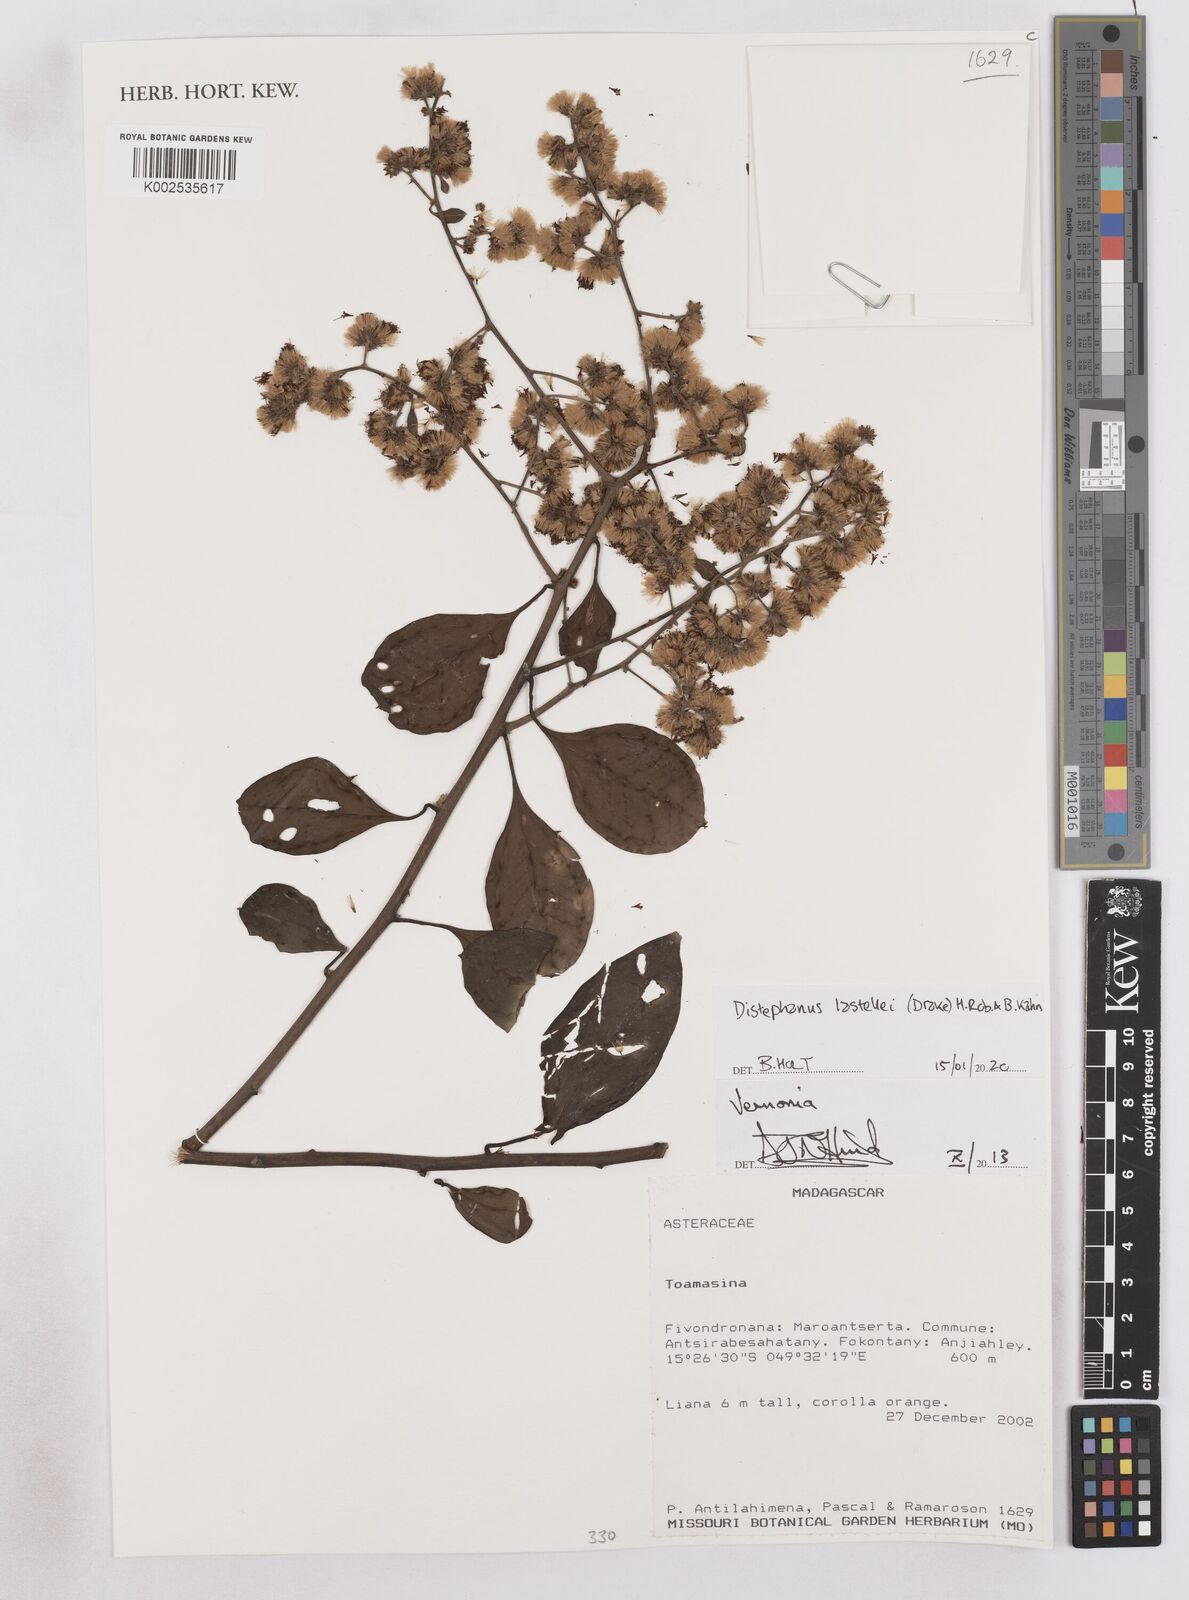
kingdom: Plantae
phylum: Tracheophyta
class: Magnoliopsida
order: Asterales
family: Asteraceae
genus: Distephanus
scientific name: Distephanus lastellei
